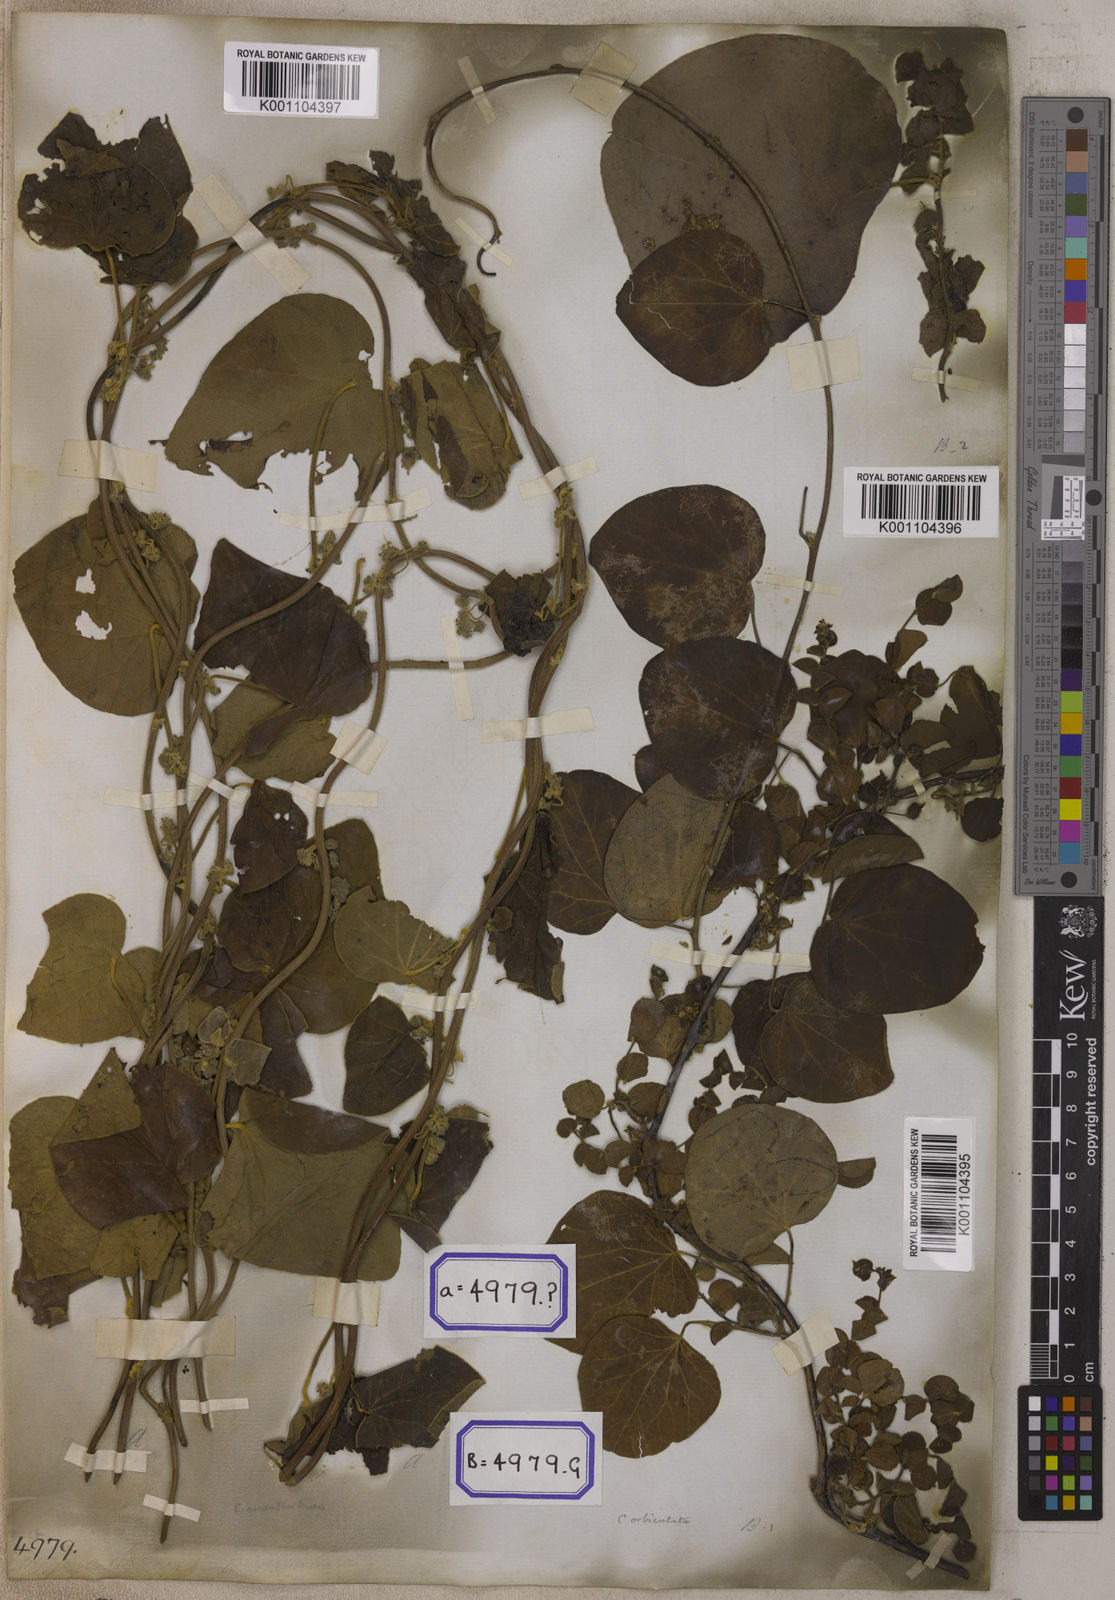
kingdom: Plantae
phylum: Tracheophyta
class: Magnoliopsida
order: Ranunculales
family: Menispermaceae
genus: Cissampelos
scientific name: Cissampelos pareira
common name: Velvetleaf
